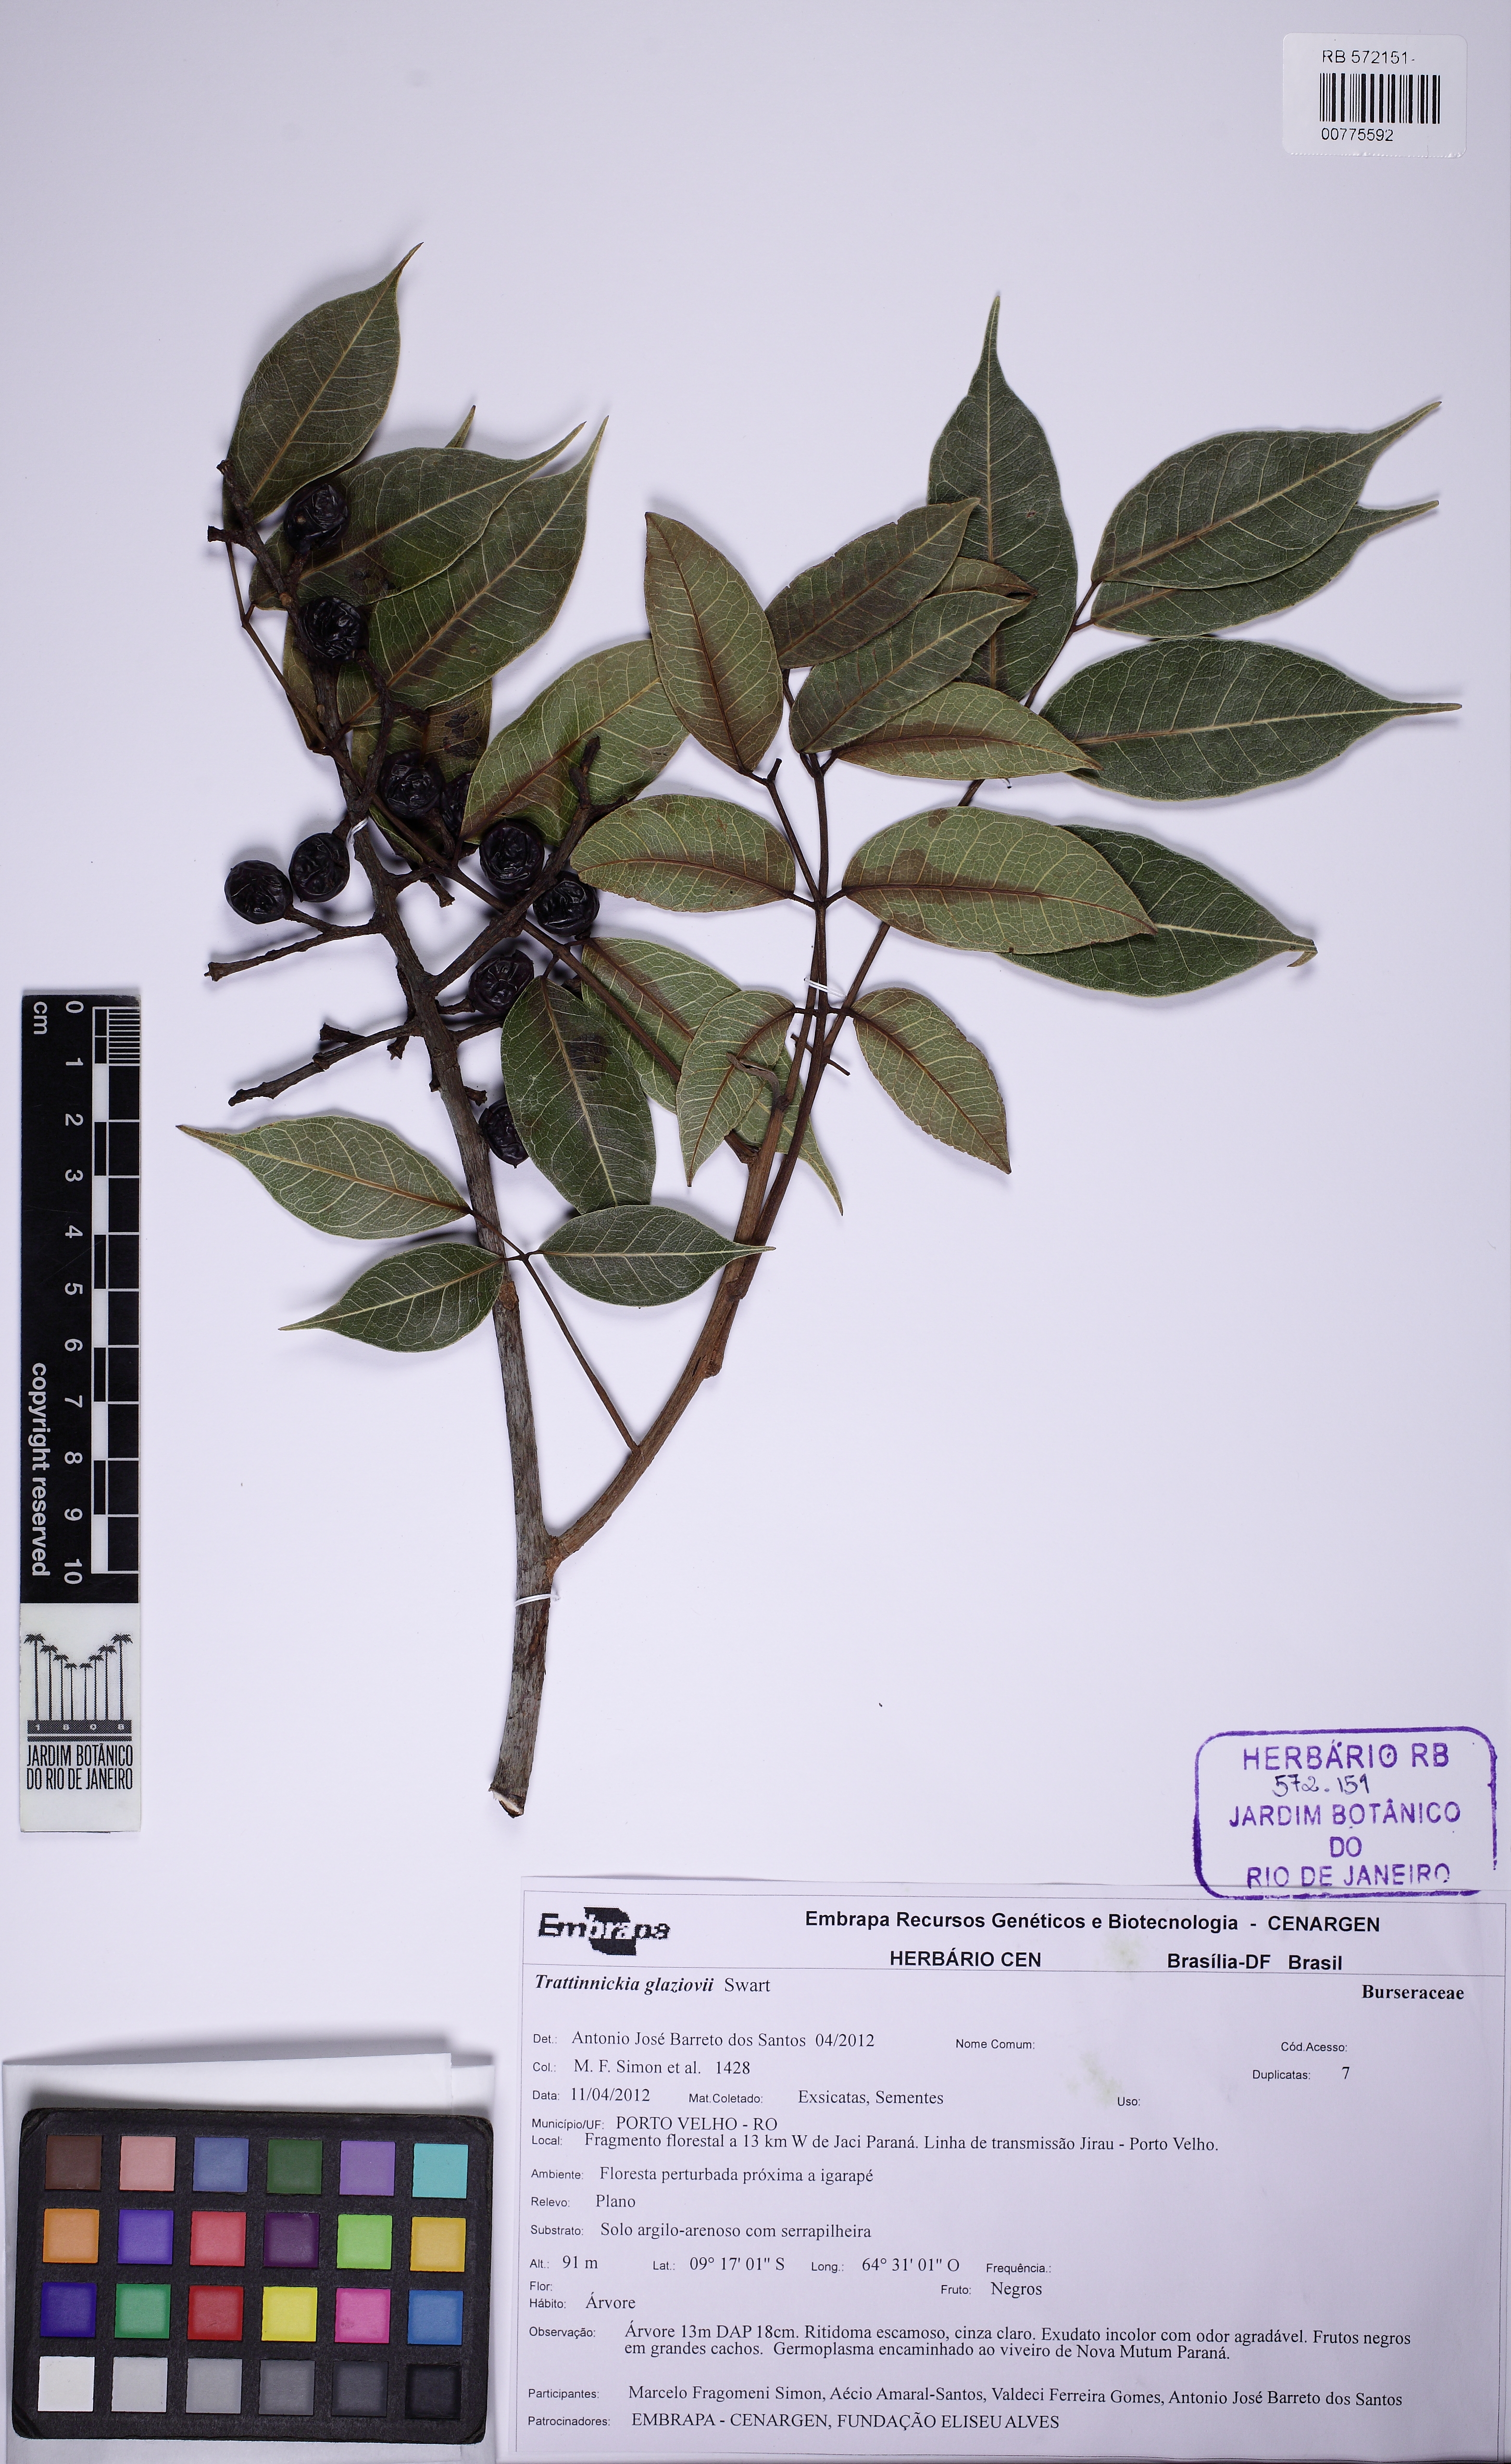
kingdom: Plantae
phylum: Tracheophyta
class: Magnoliopsida
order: Sapindales
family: Burseraceae
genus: Trattinnickia
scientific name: Trattinnickia glaziovii
